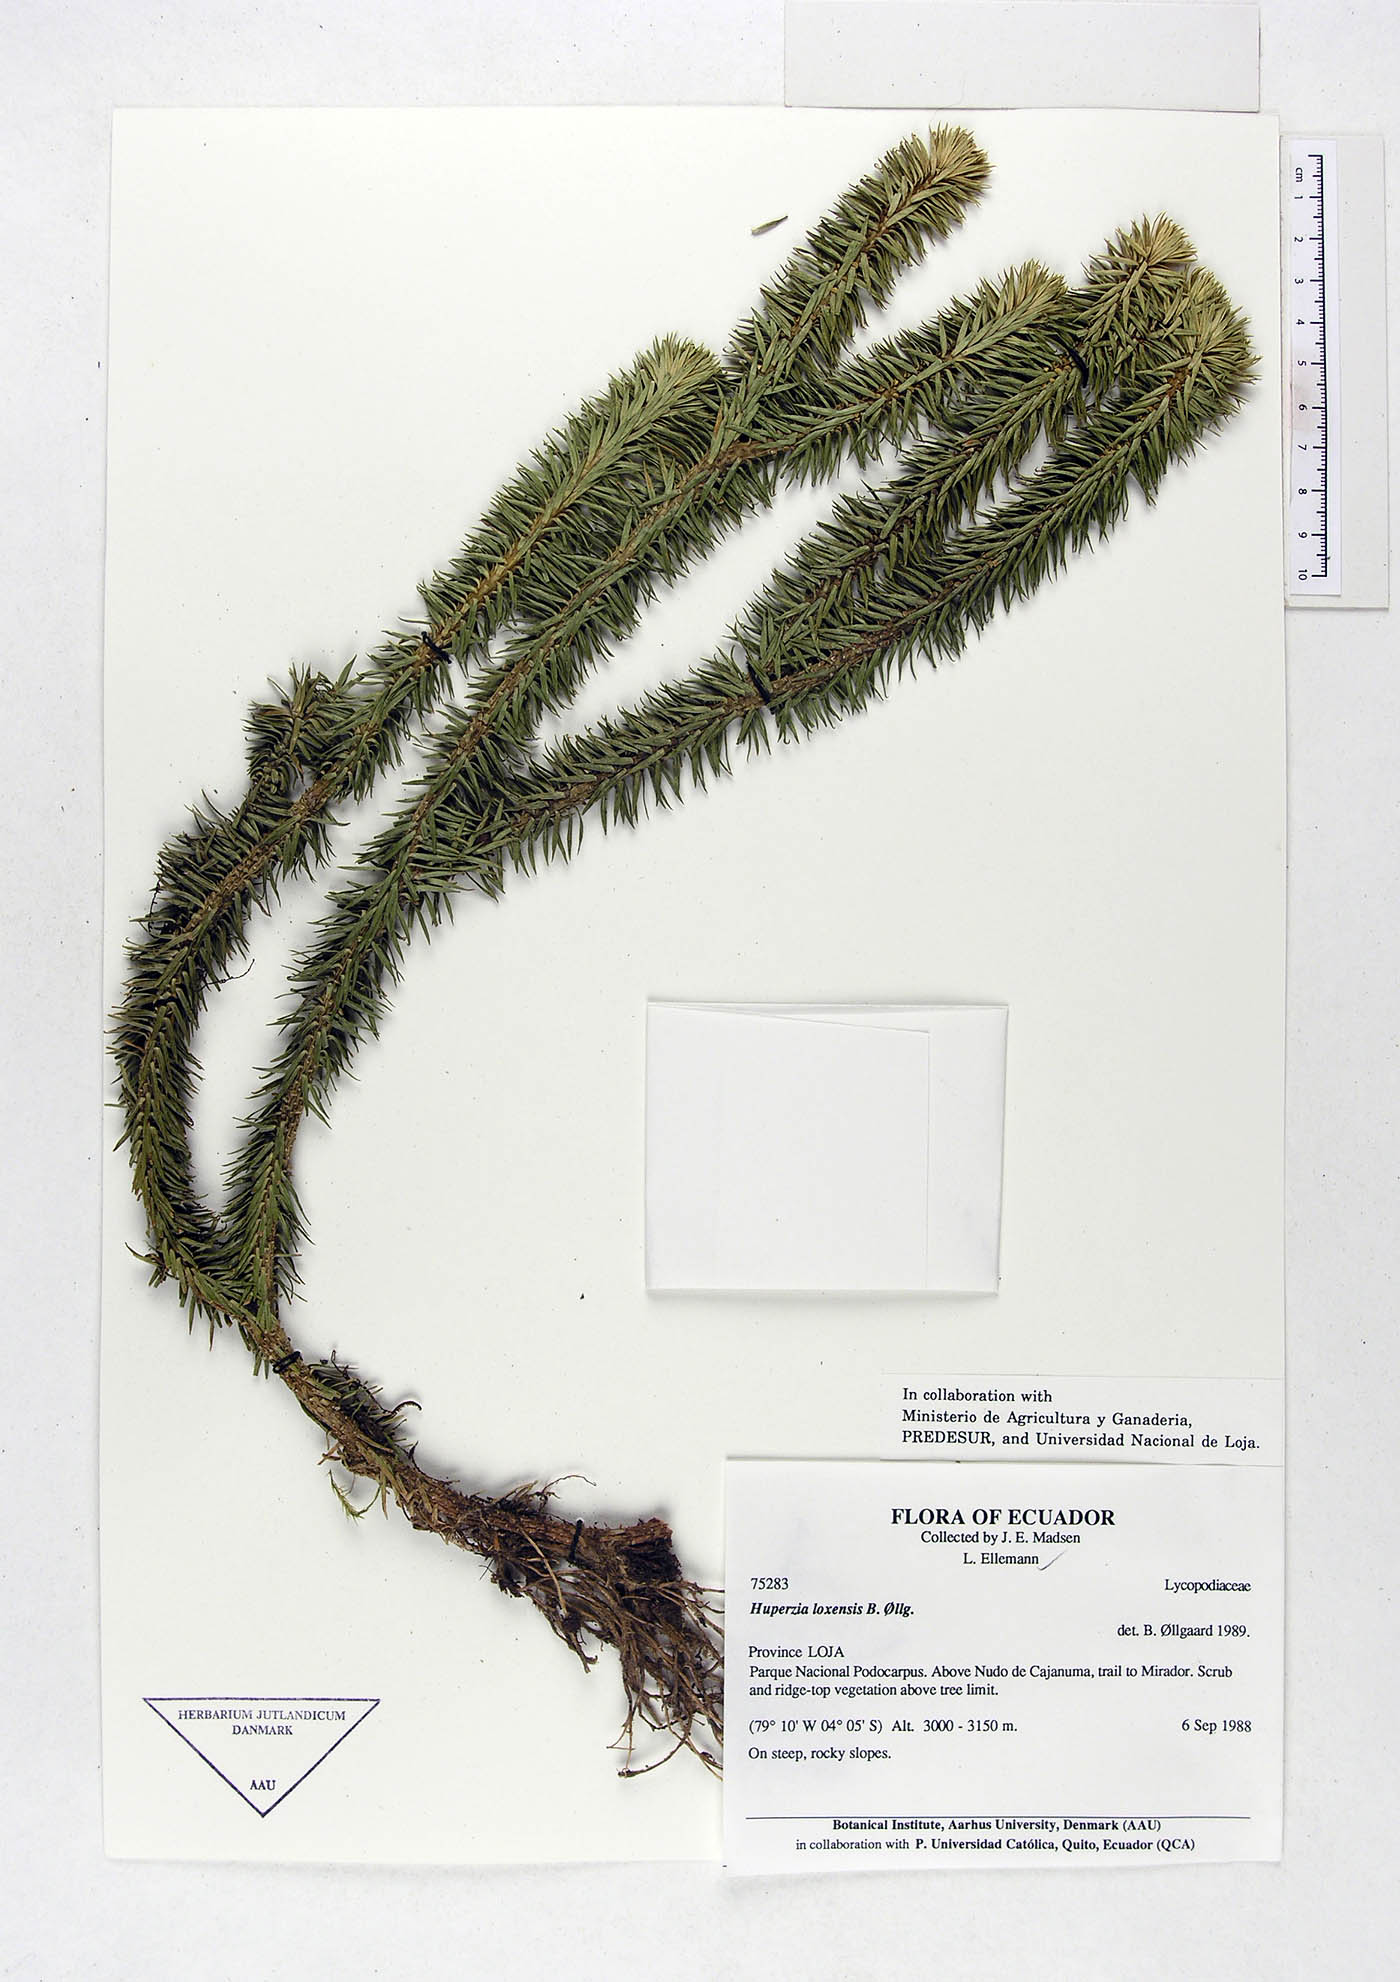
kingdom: Plantae
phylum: Tracheophyta
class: Lycopodiopsida
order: Lycopodiales
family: Lycopodiaceae
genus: Phlegmariurus
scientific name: Phlegmariurus loxensis
